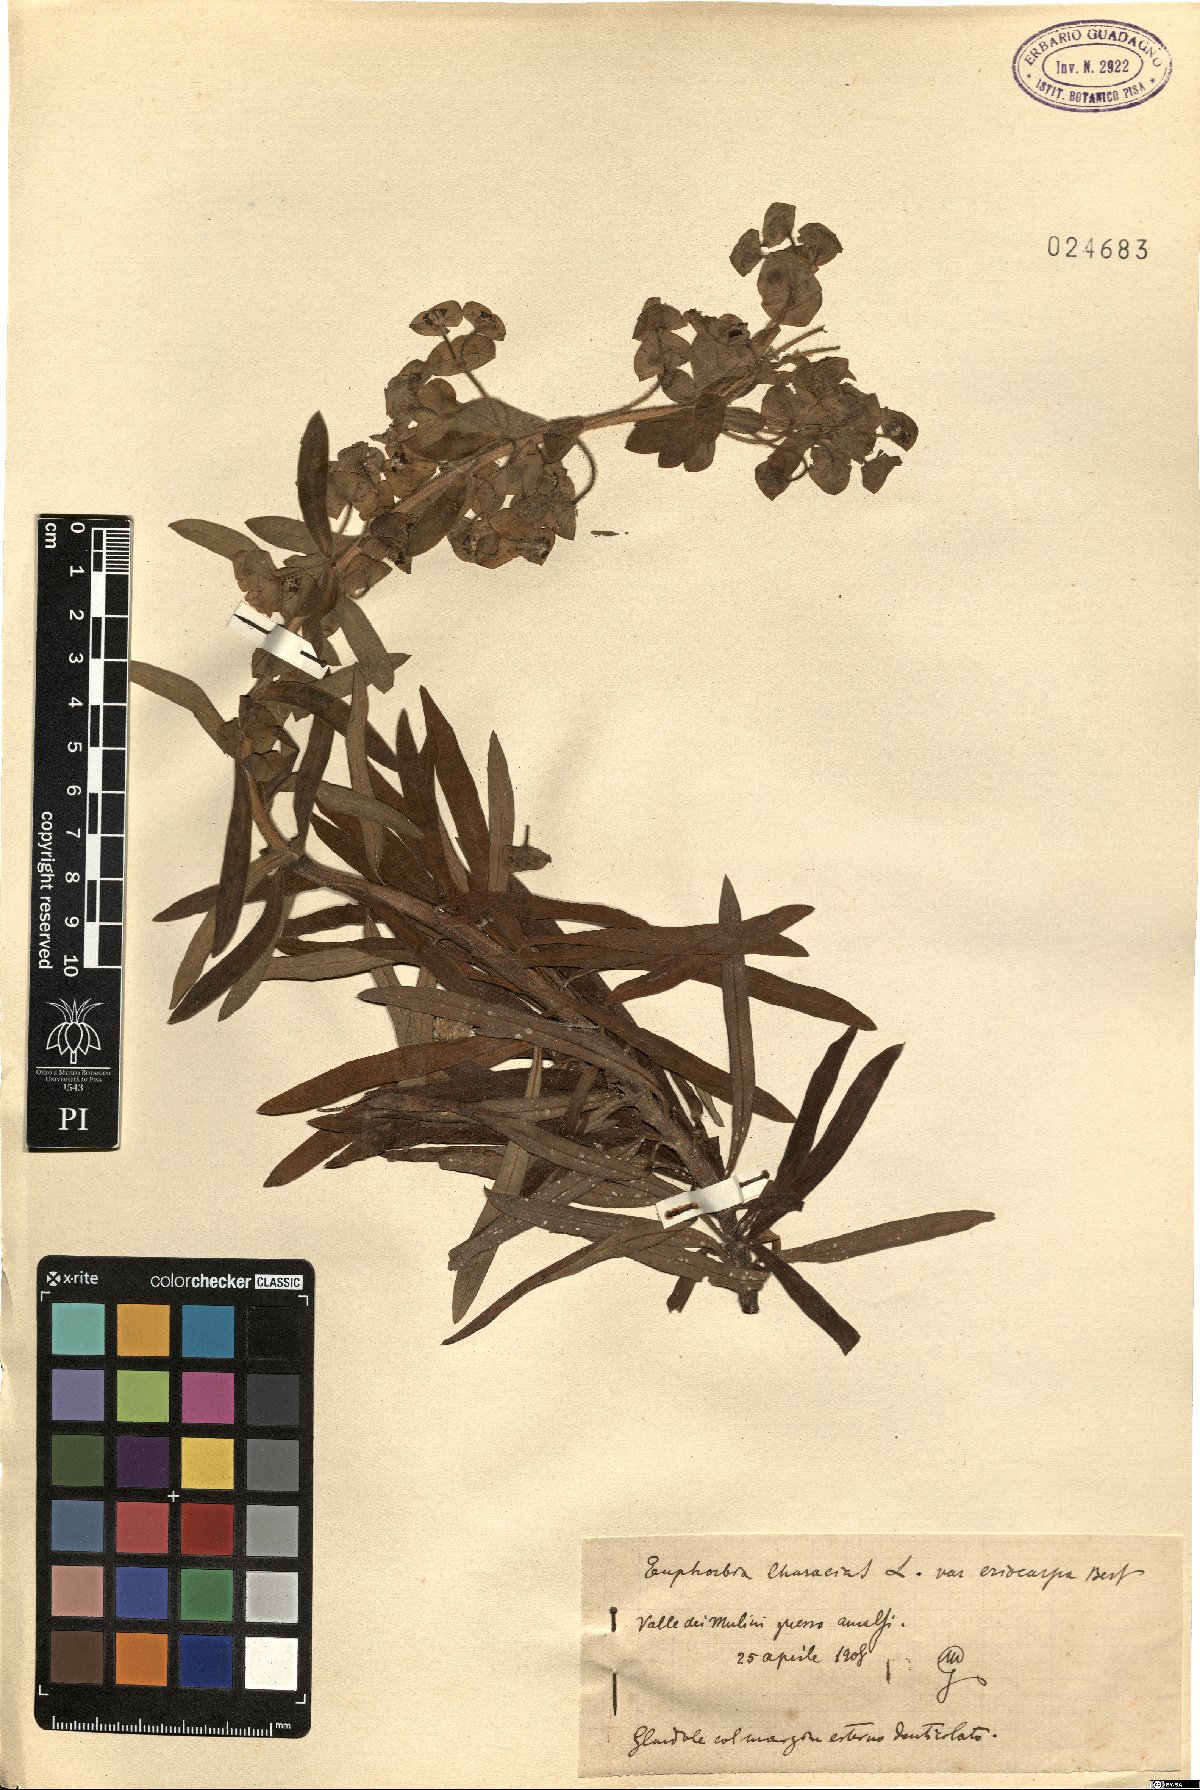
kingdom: Plantae
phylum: Tracheophyta
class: Magnoliopsida
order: Malpighiales
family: Euphorbiaceae
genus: Euphorbia
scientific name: Euphorbia characias
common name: Mediterranean spurge
